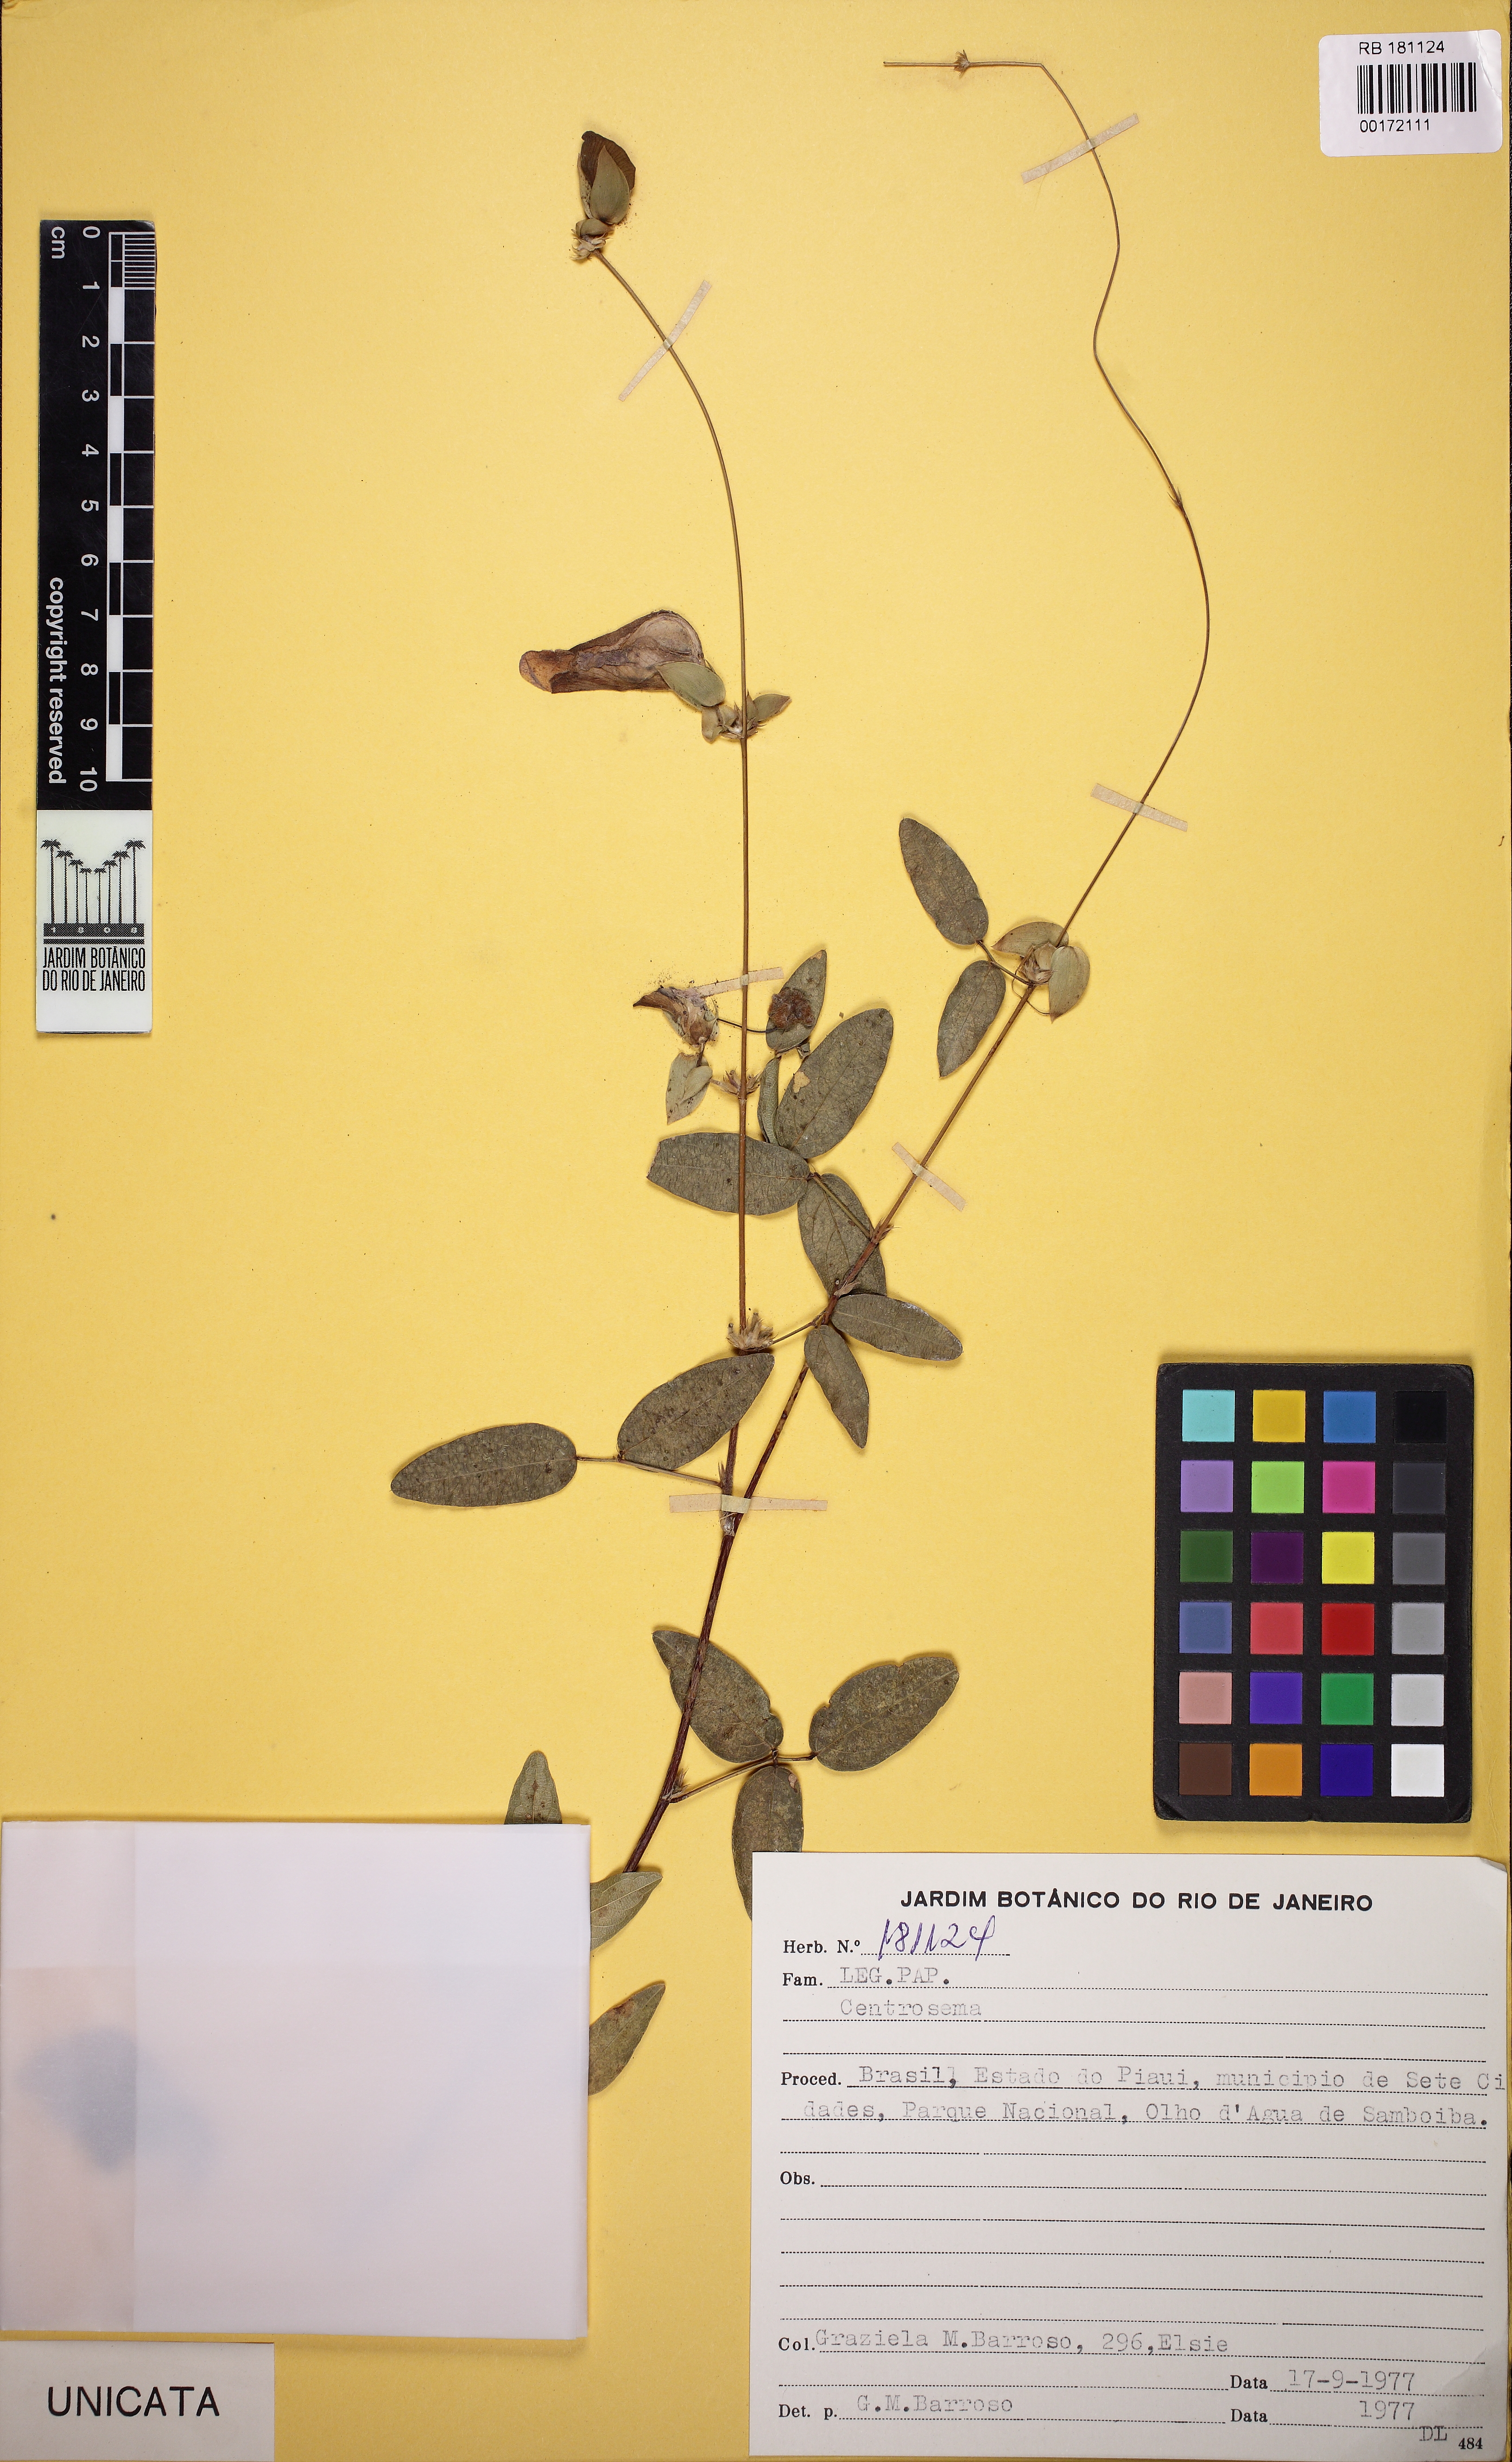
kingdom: Plantae
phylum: Tracheophyta
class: Magnoliopsida
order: Fabales
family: Fabaceae
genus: Centrosema
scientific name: Centrosema
